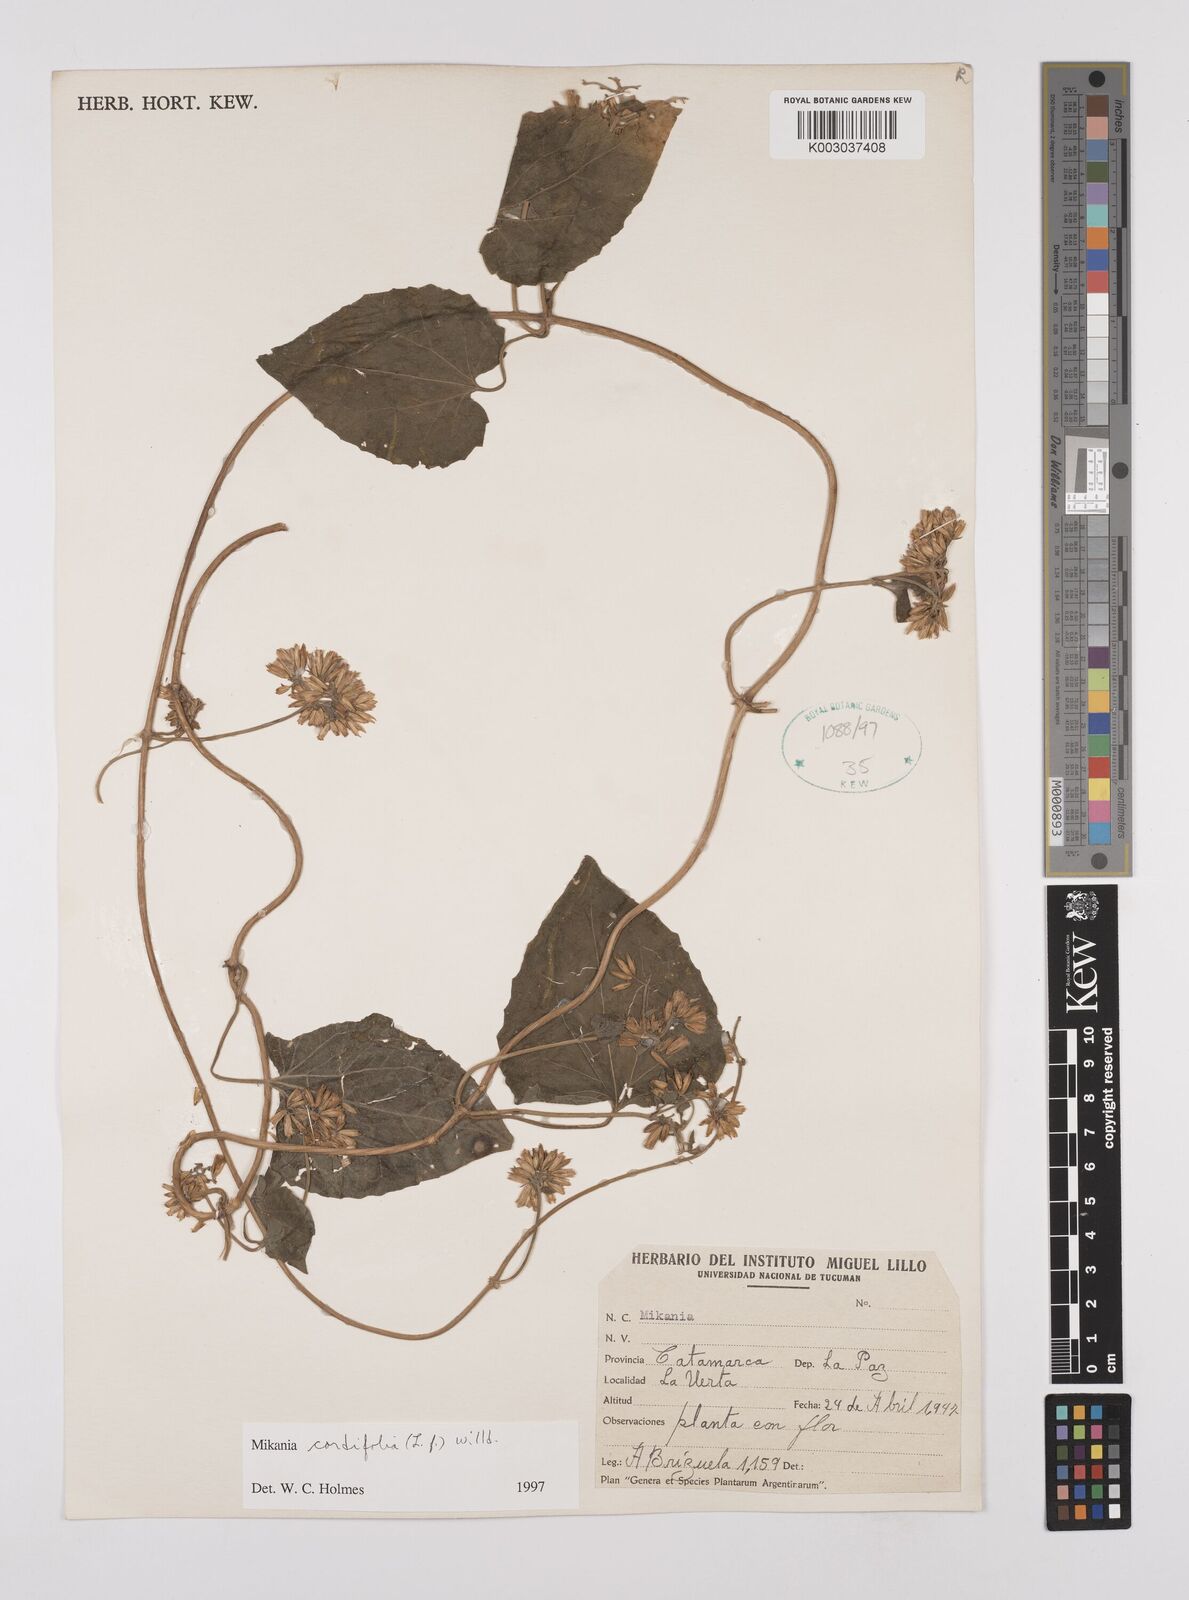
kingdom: Plantae
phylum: Tracheophyta
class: Magnoliopsida
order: Asterales
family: Asteraceae
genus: Mikania
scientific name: Mikania cordifolia
